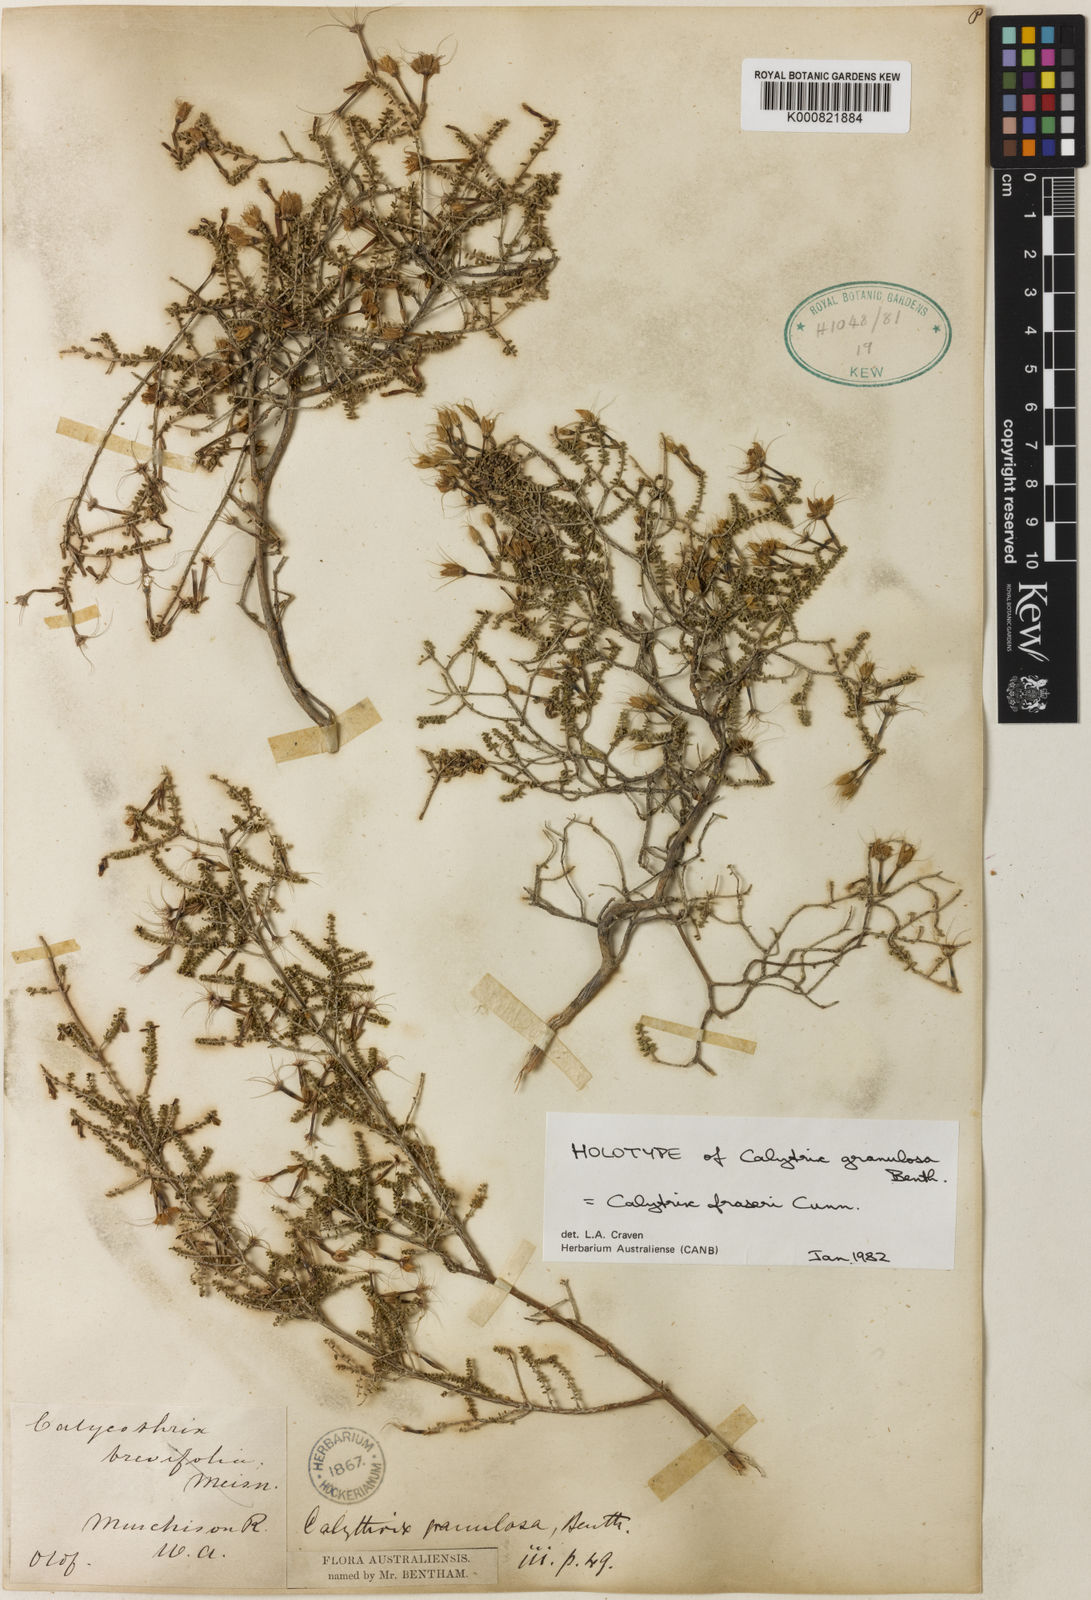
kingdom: Plantae
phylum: Tracheophyta
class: Magnoliopsida
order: Myrtales
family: Myrtaceae
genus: Calytrix
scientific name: Calytrix fraseri
